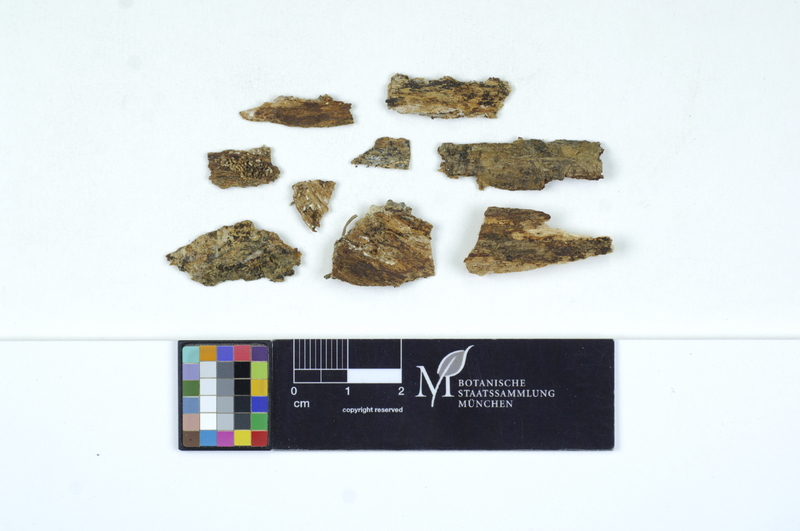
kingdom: Fungi
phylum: Basidiomycota
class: Agaricomycetes
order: Hymenochaetales
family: Rickenellaceae
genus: Peniophorella
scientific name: Peniophorella praetermissa
